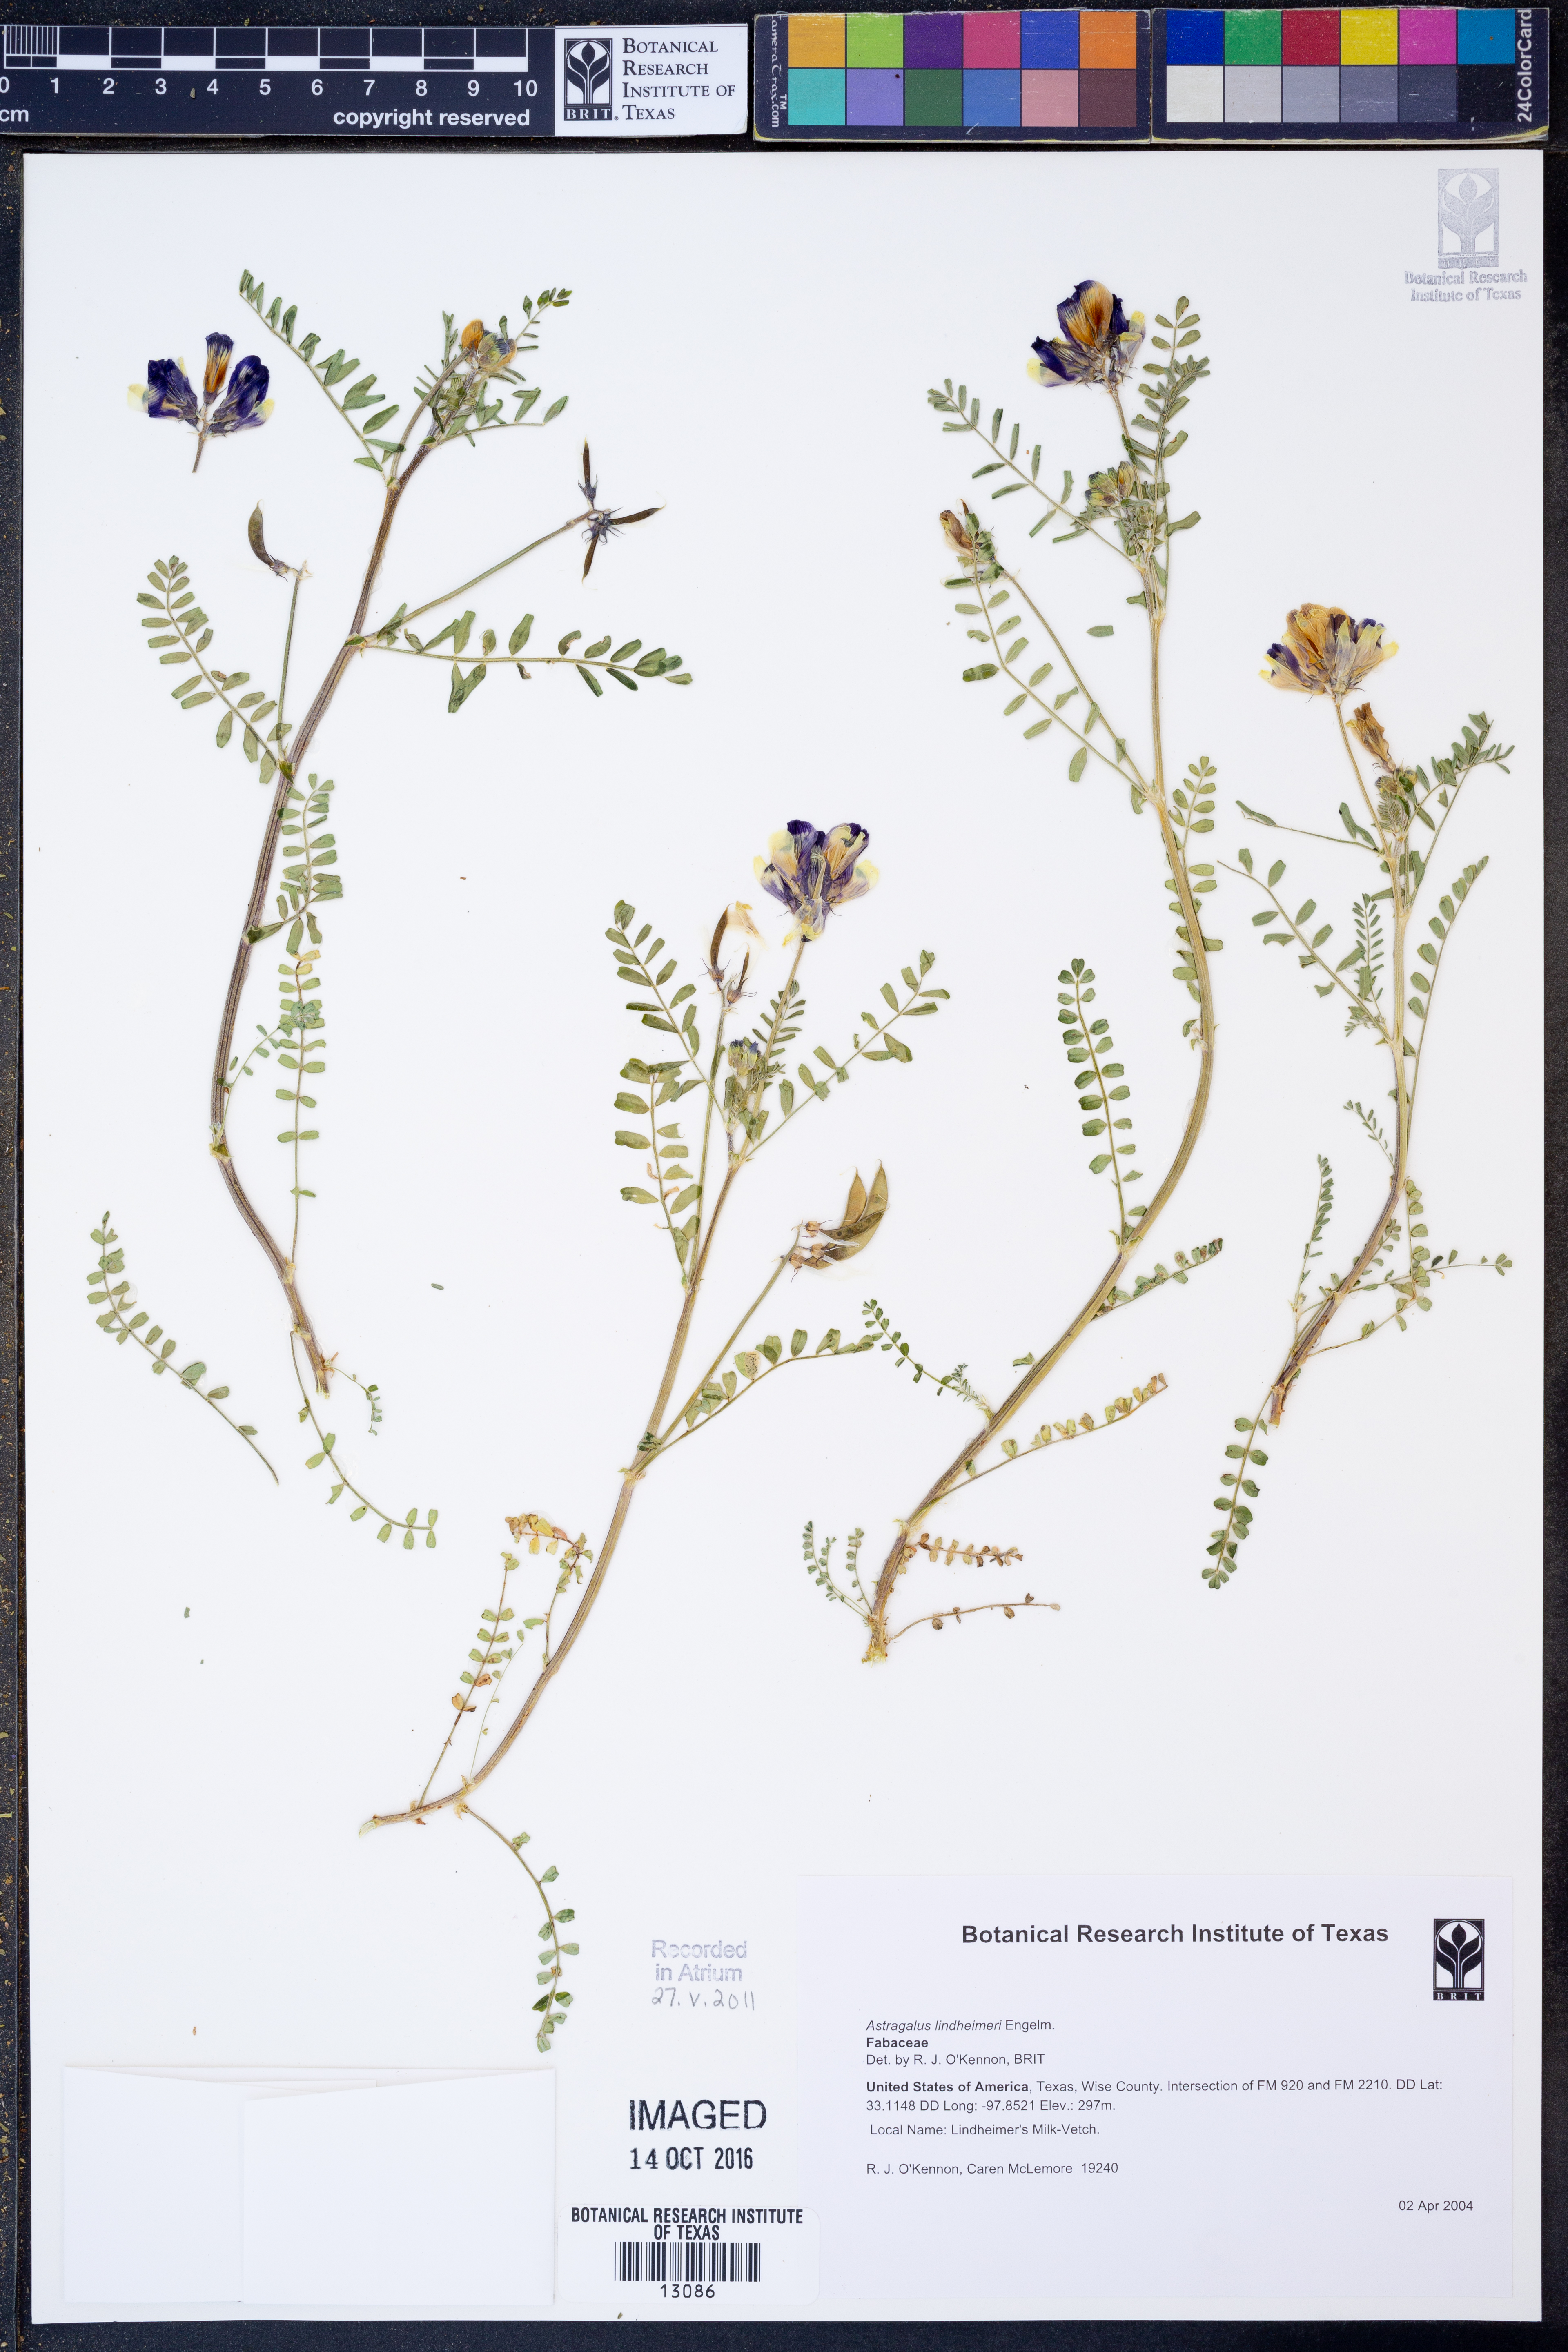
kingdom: Plantae
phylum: Tracheophyta
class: Magnoliopsida
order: Fabales
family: Fabaceae
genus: Astragalus
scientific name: Astragalus lindheimeri
